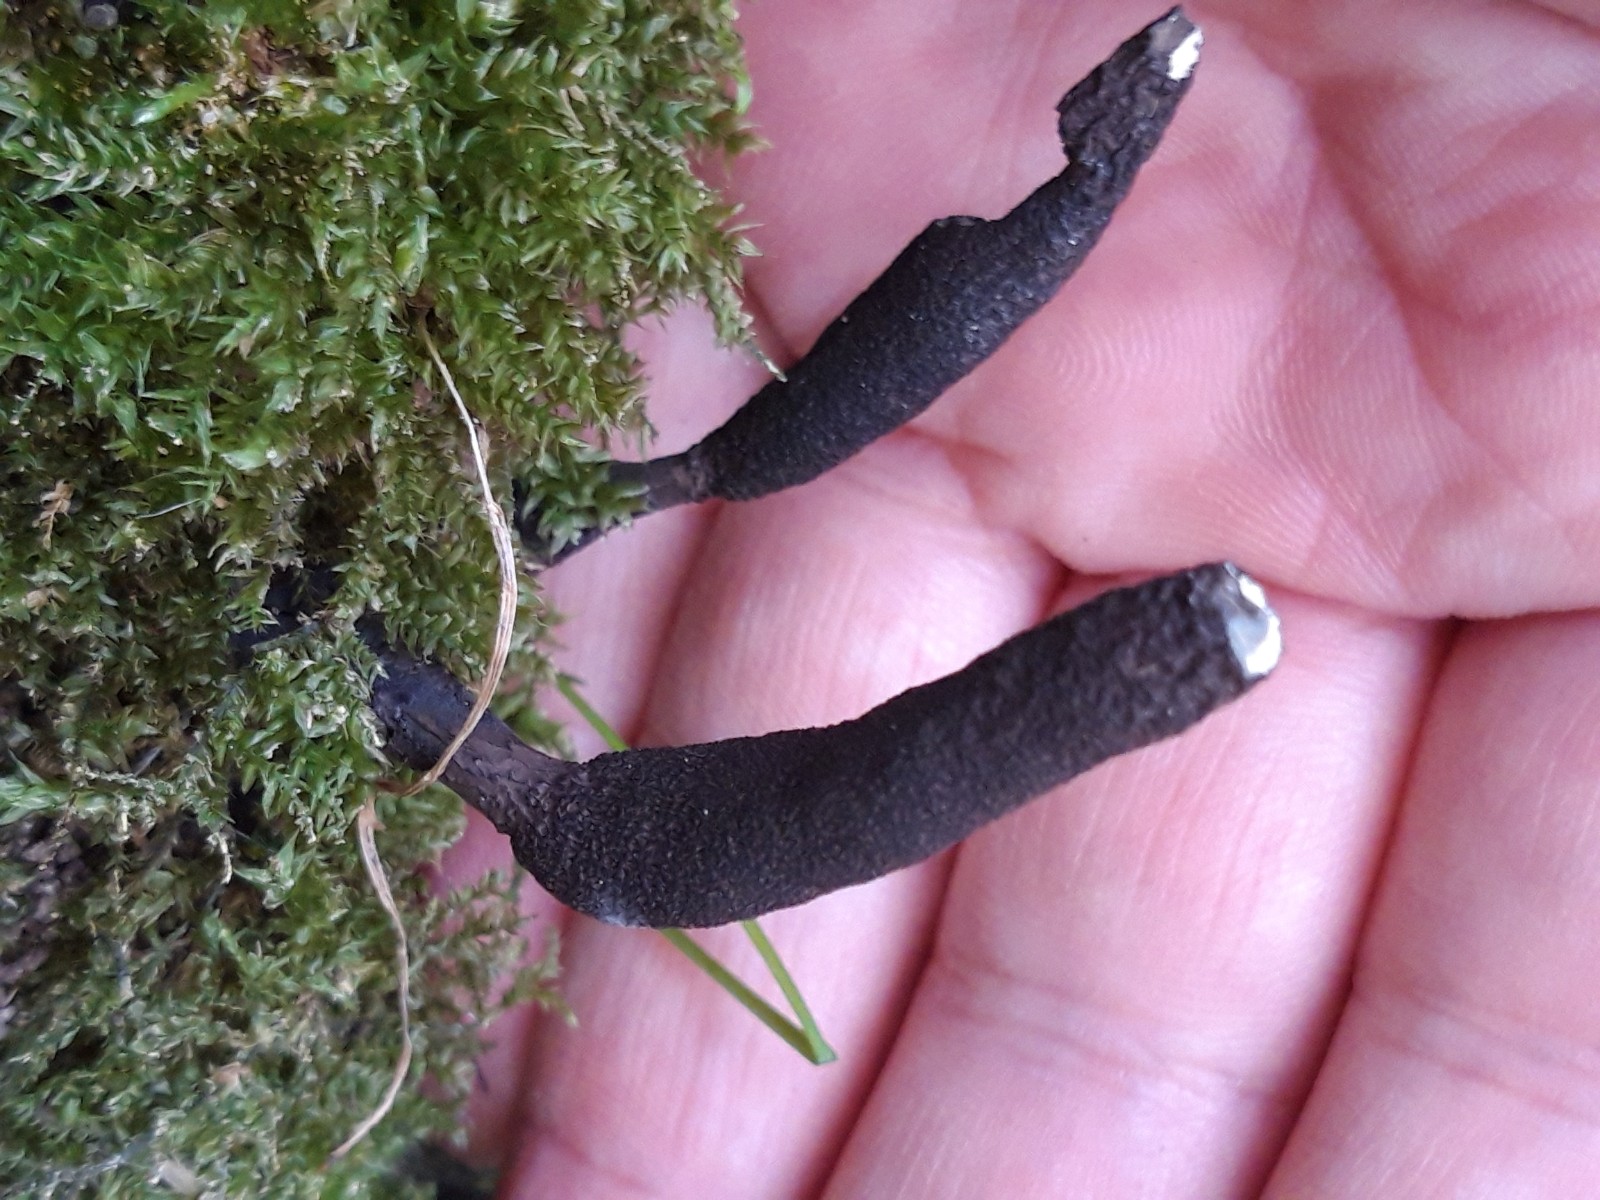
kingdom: Fungi
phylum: Ascomycota
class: Sordariomycetes
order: Xylariales
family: Xylariaceae
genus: Xylaria
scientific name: Xylaria longipes
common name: slank stødsvamp
